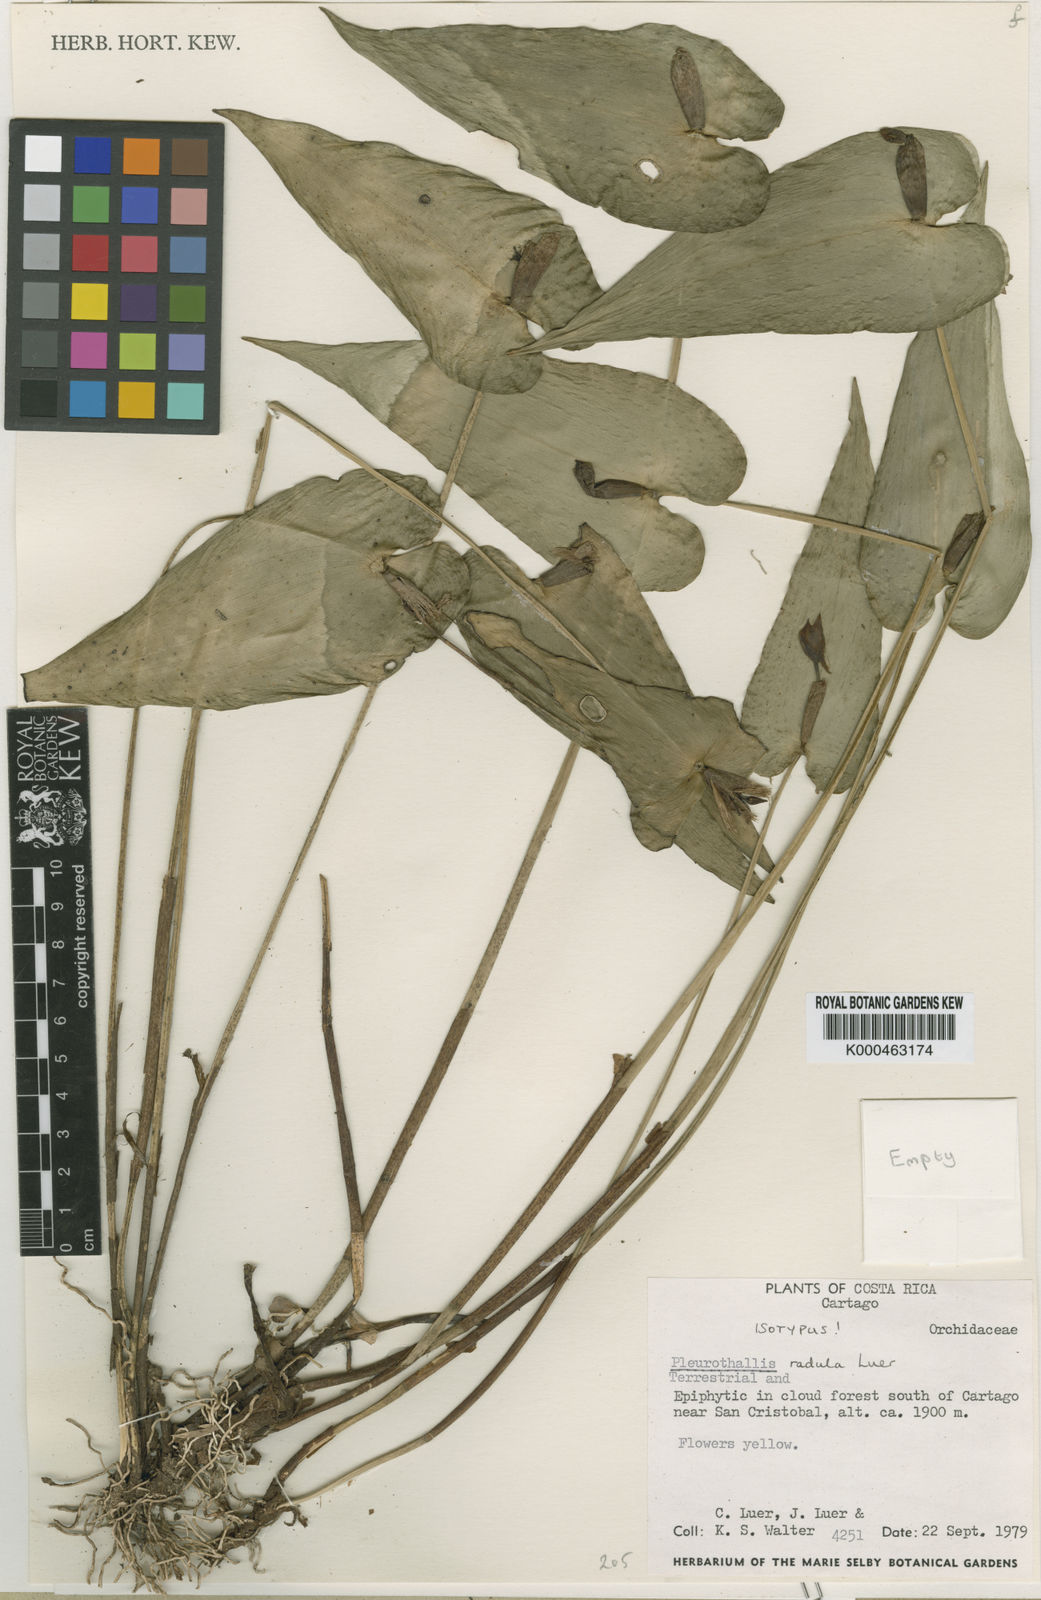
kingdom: Plantae
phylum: Tracheophyta
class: Liliopsida
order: Asparagales
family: Orchidaceae
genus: Pleurothallis
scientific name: Pleurothallis radula
